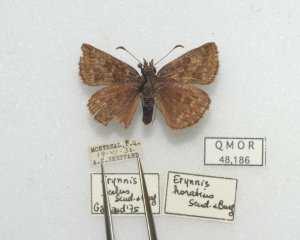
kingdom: Animalia
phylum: Arthropoda
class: Insecta
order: Lepidoptera
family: Hesperiidae
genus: Erynnis
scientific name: Erynnis icelus
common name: Dreamy Duskywing
